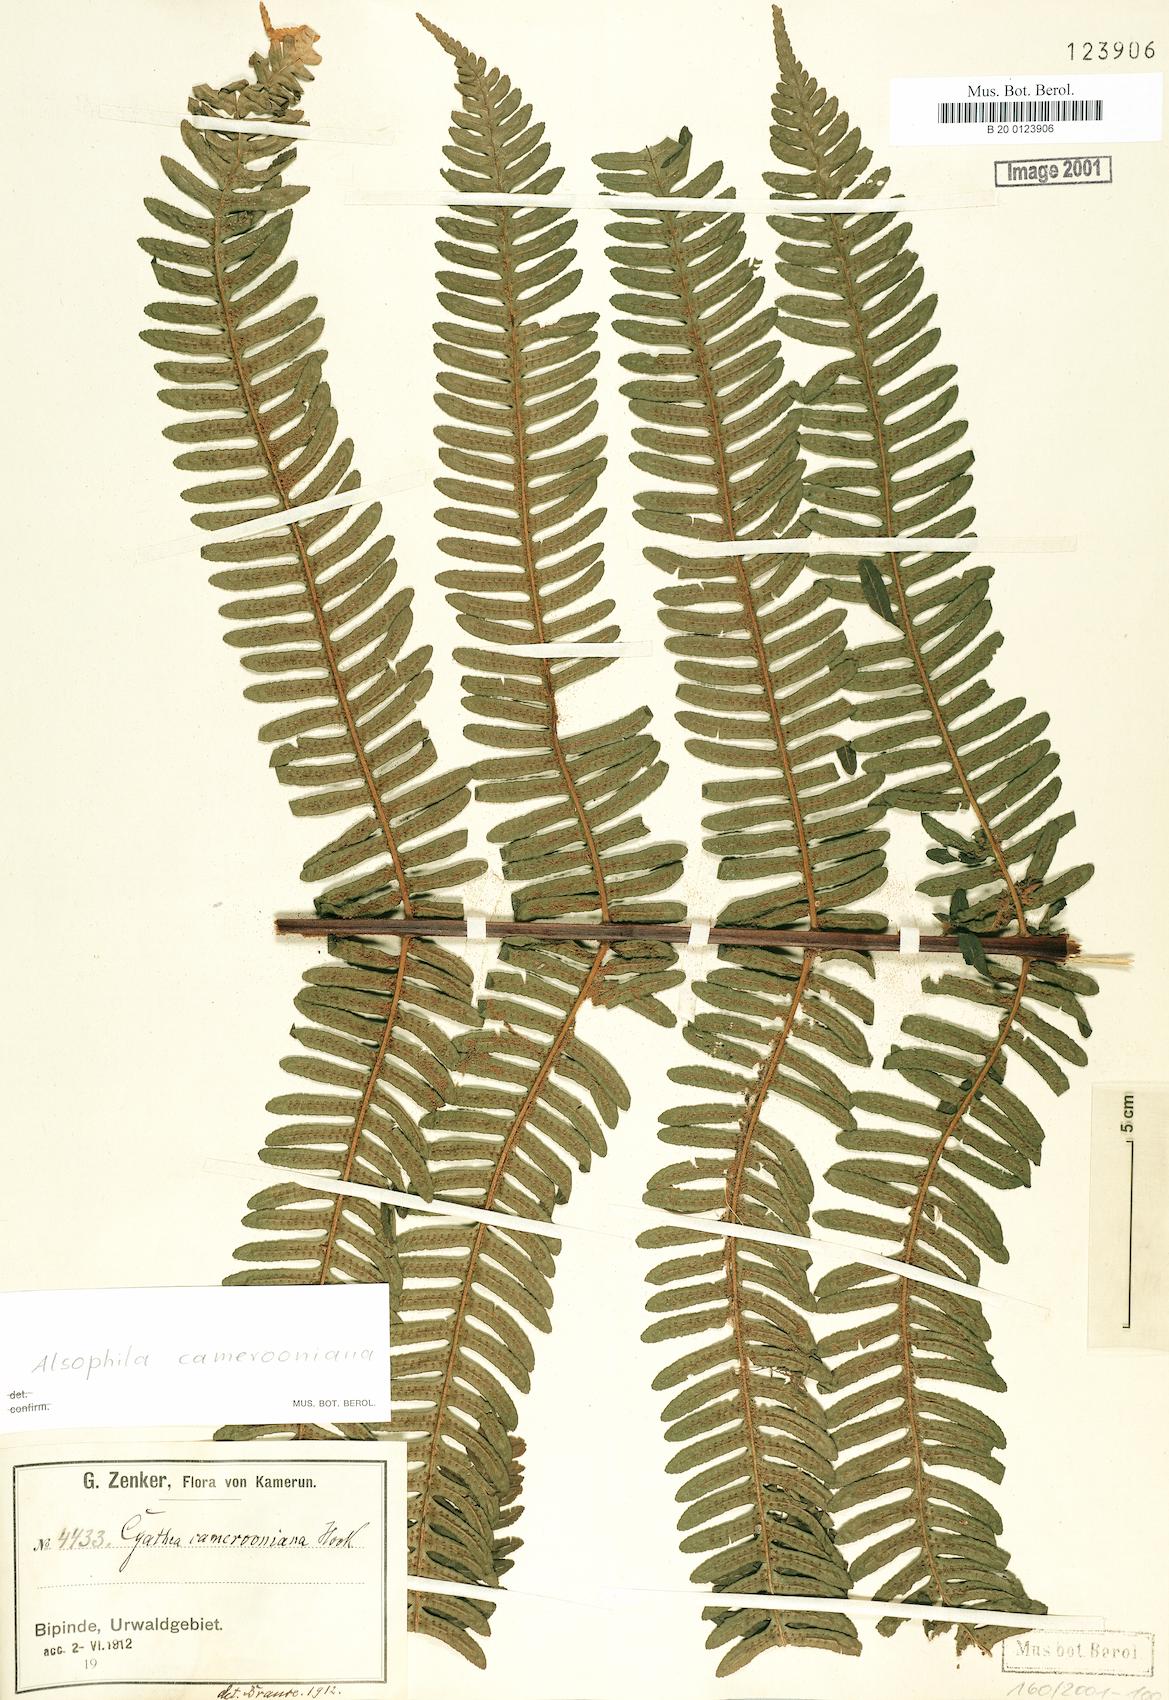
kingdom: Plantae
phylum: Tracheophyta
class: Polypodiopsida
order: Cyatheales
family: Cyatheaceae
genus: Alsophila
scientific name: Alsophila camerooniana
